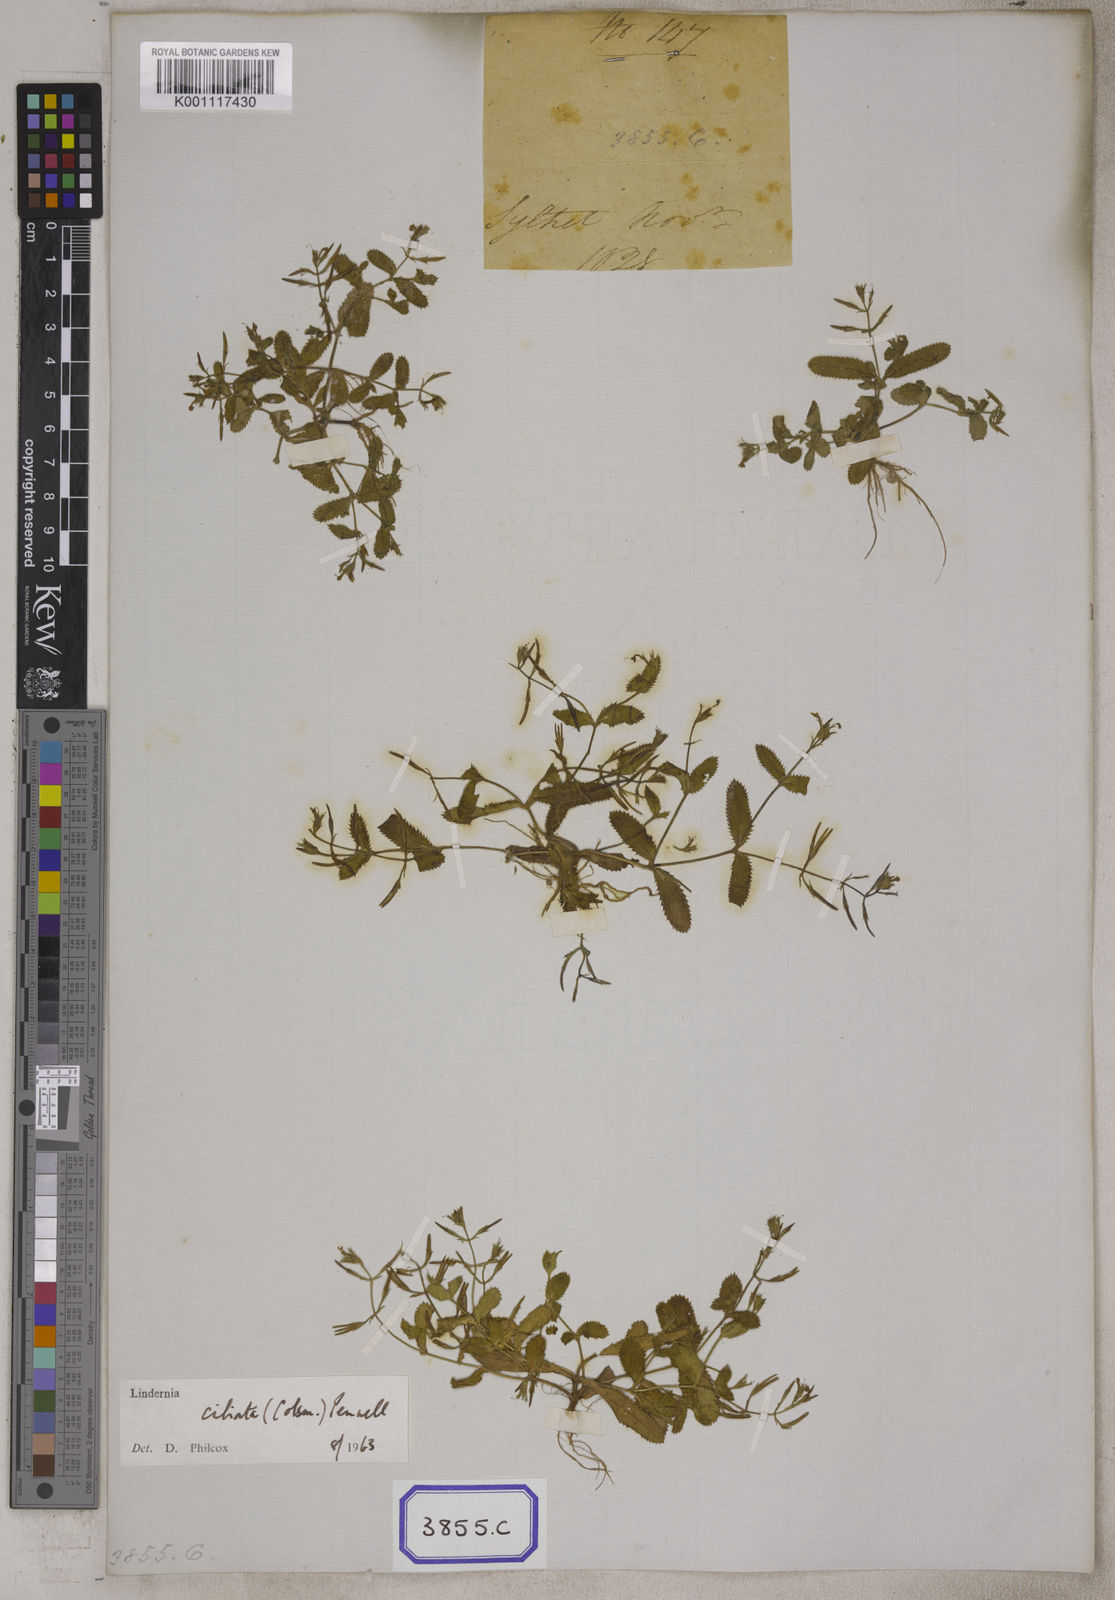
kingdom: Plantae
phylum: Tracheophyta
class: Magnoliopsida
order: Lamiales
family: Linderniaceae
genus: Bonnaya
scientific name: Bonnaya ciliata
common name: Hairy slitwort
